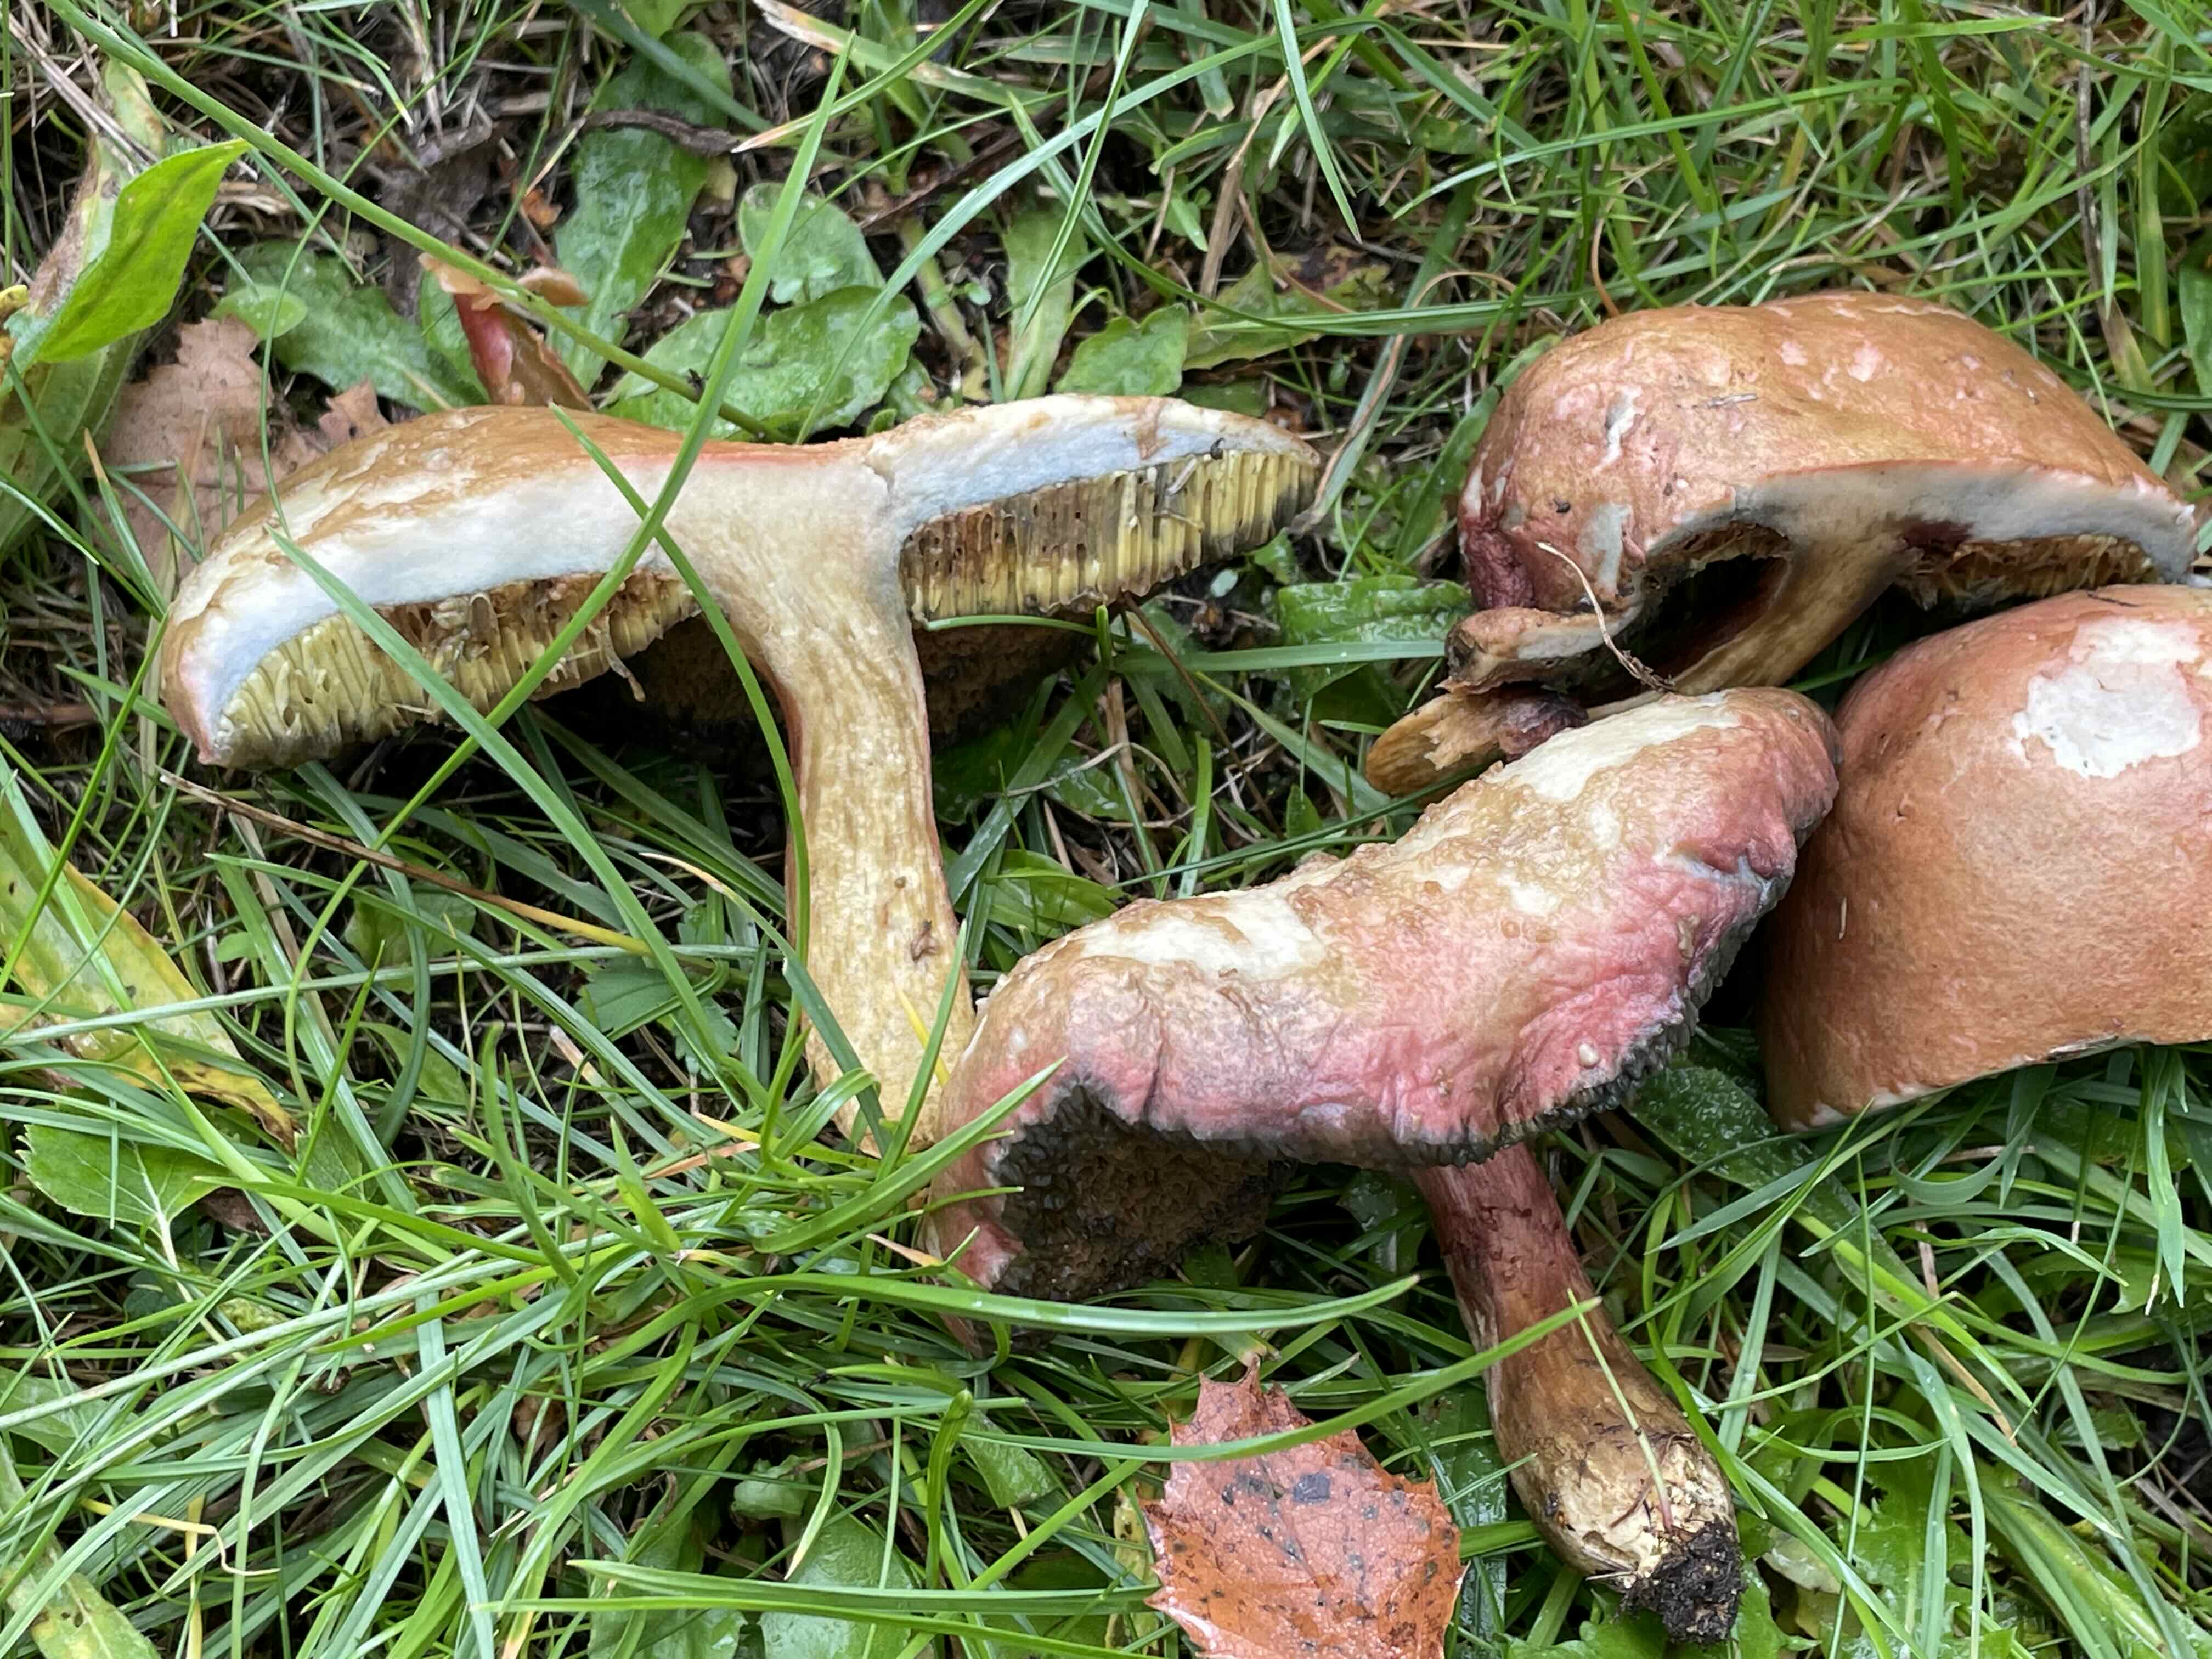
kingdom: Fungi
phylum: Basidiomycota
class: Agaricomycetes
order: Boletales
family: Boletaceae
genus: Hortiboletus
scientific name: Hortiboletus bubalinus
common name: aurora-rørhat
